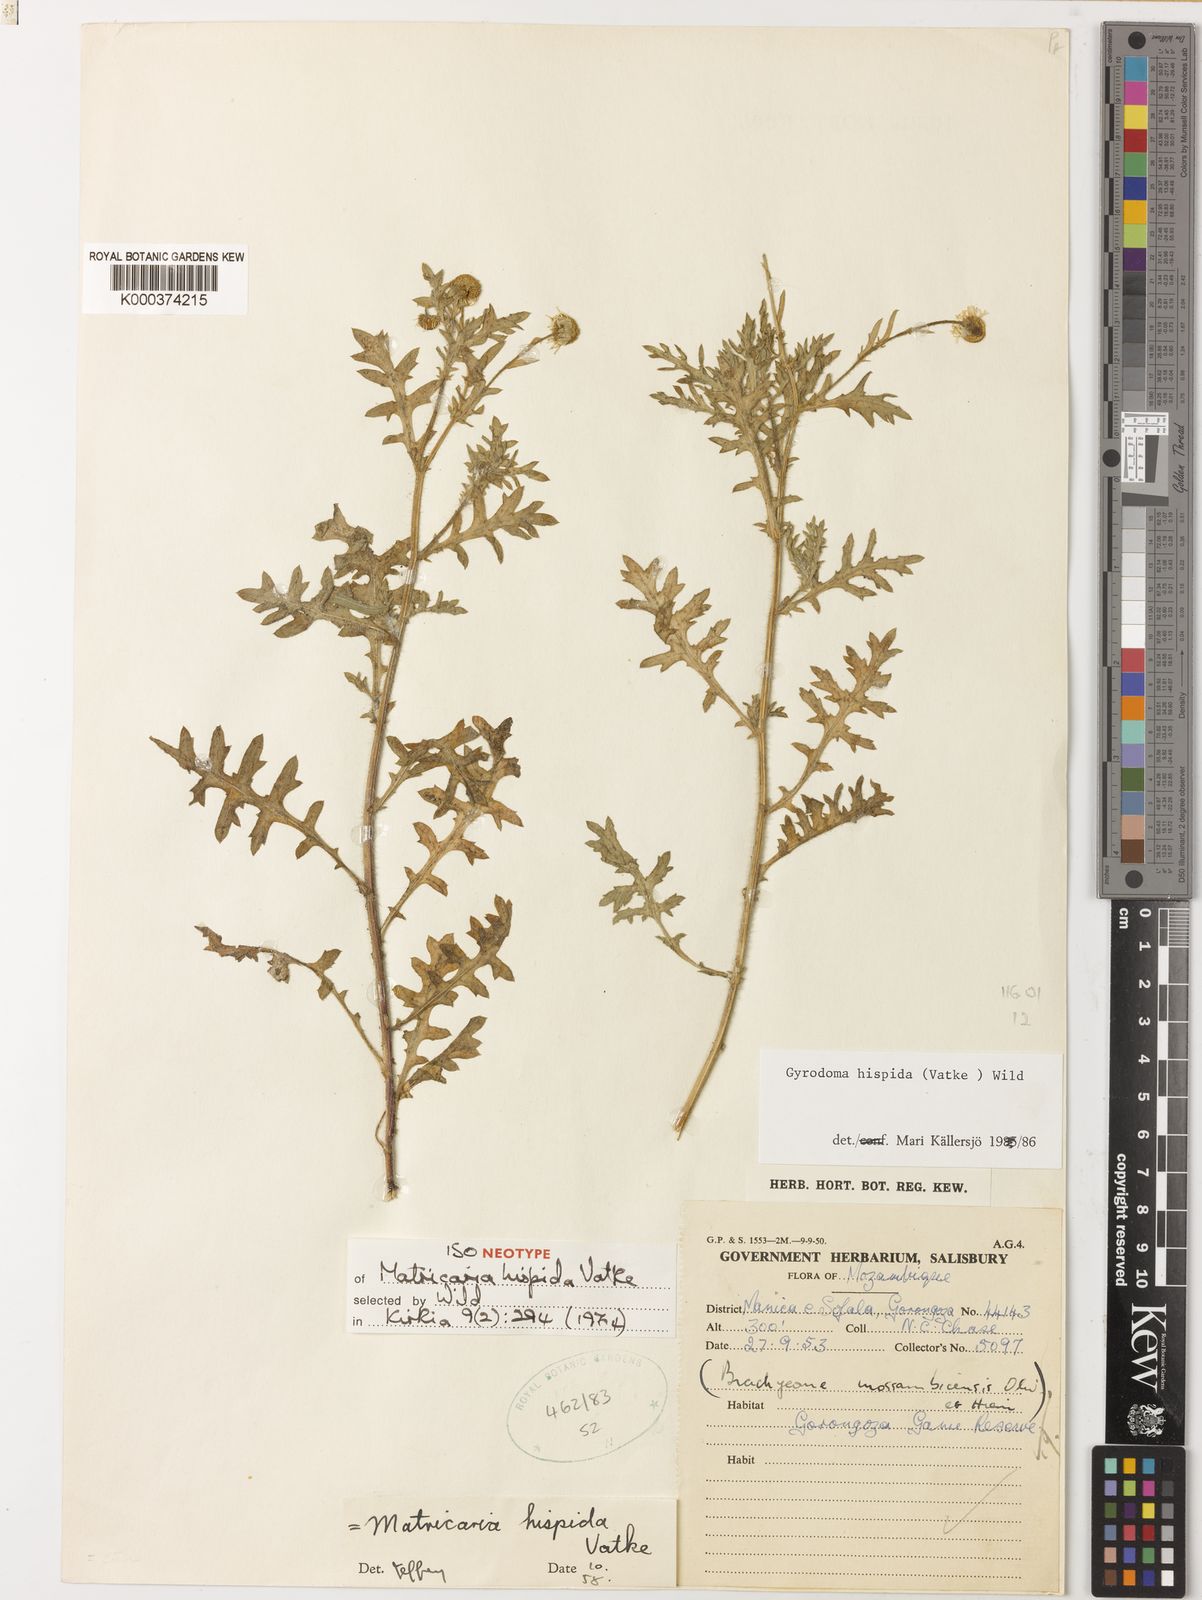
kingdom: Plantae
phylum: Tracheophyta
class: Magnoliopsida
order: Asterales
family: Asteraceae
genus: Gyrodoma
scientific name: Gyrodoma hispida
